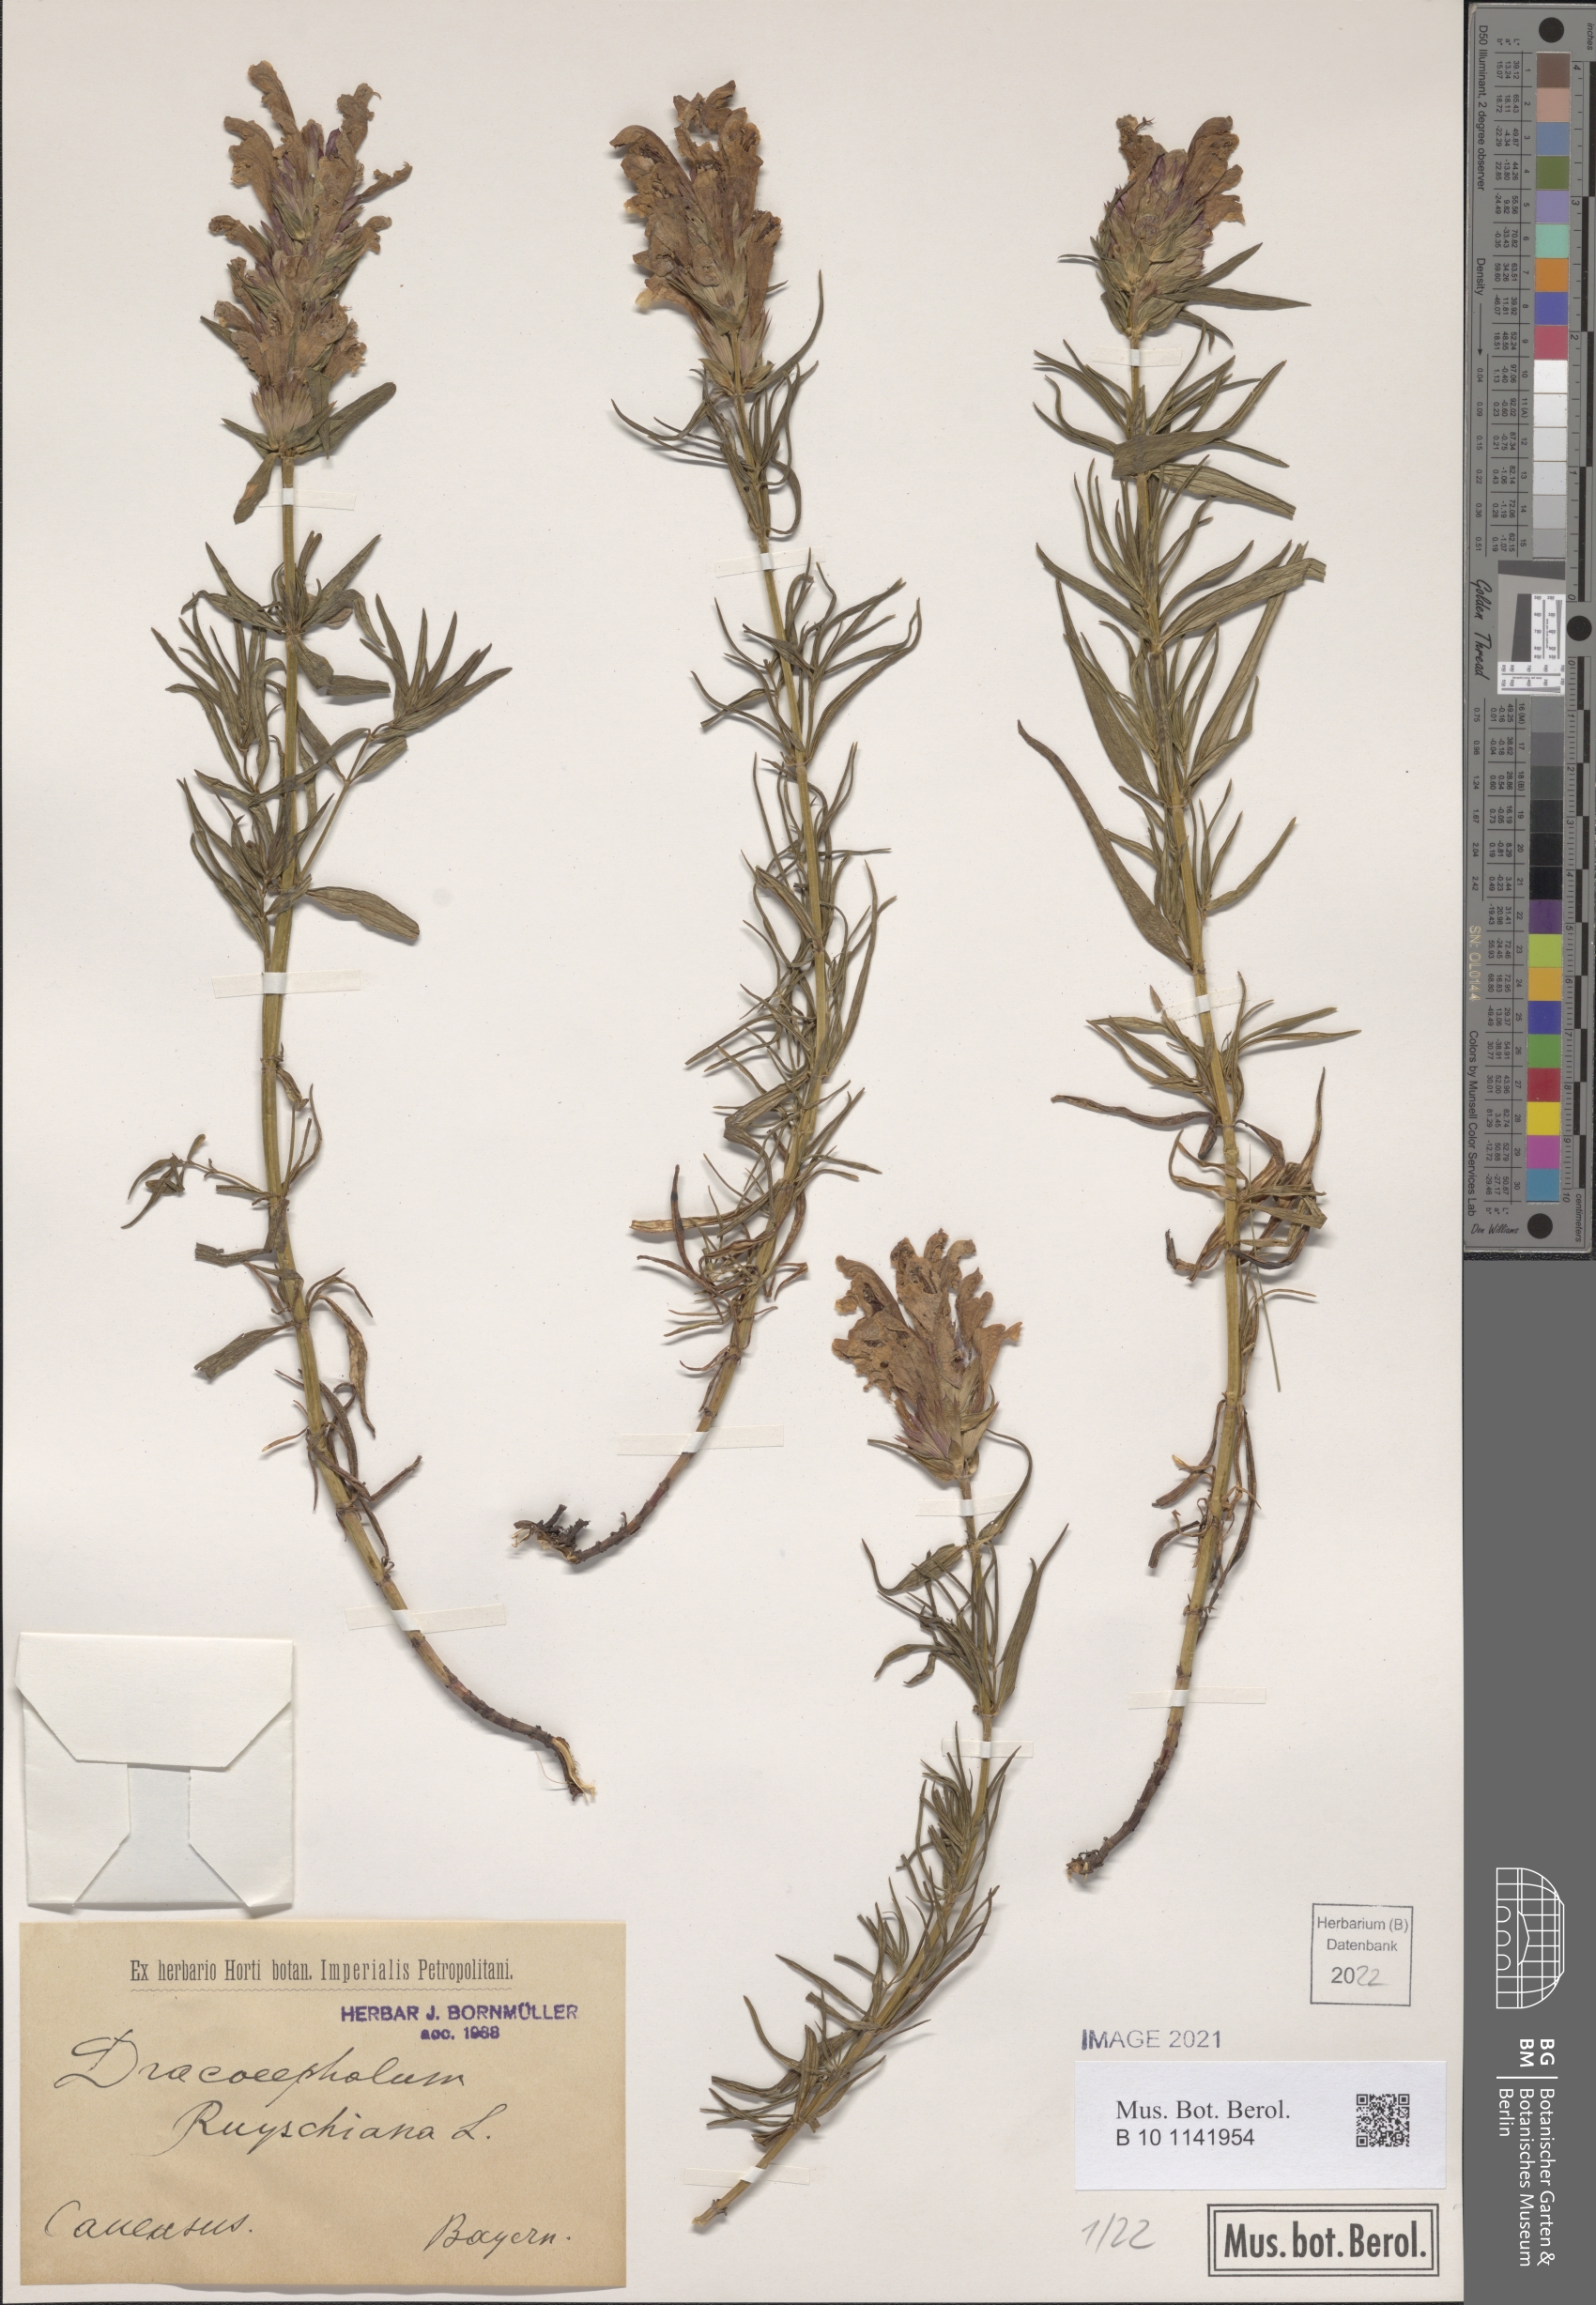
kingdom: Plantae
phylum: Tracheophyta
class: Magnoliopsida
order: Lamiales
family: Lamiaceae
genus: Dracocephalum
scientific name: Dracocephalum ruyschiana
